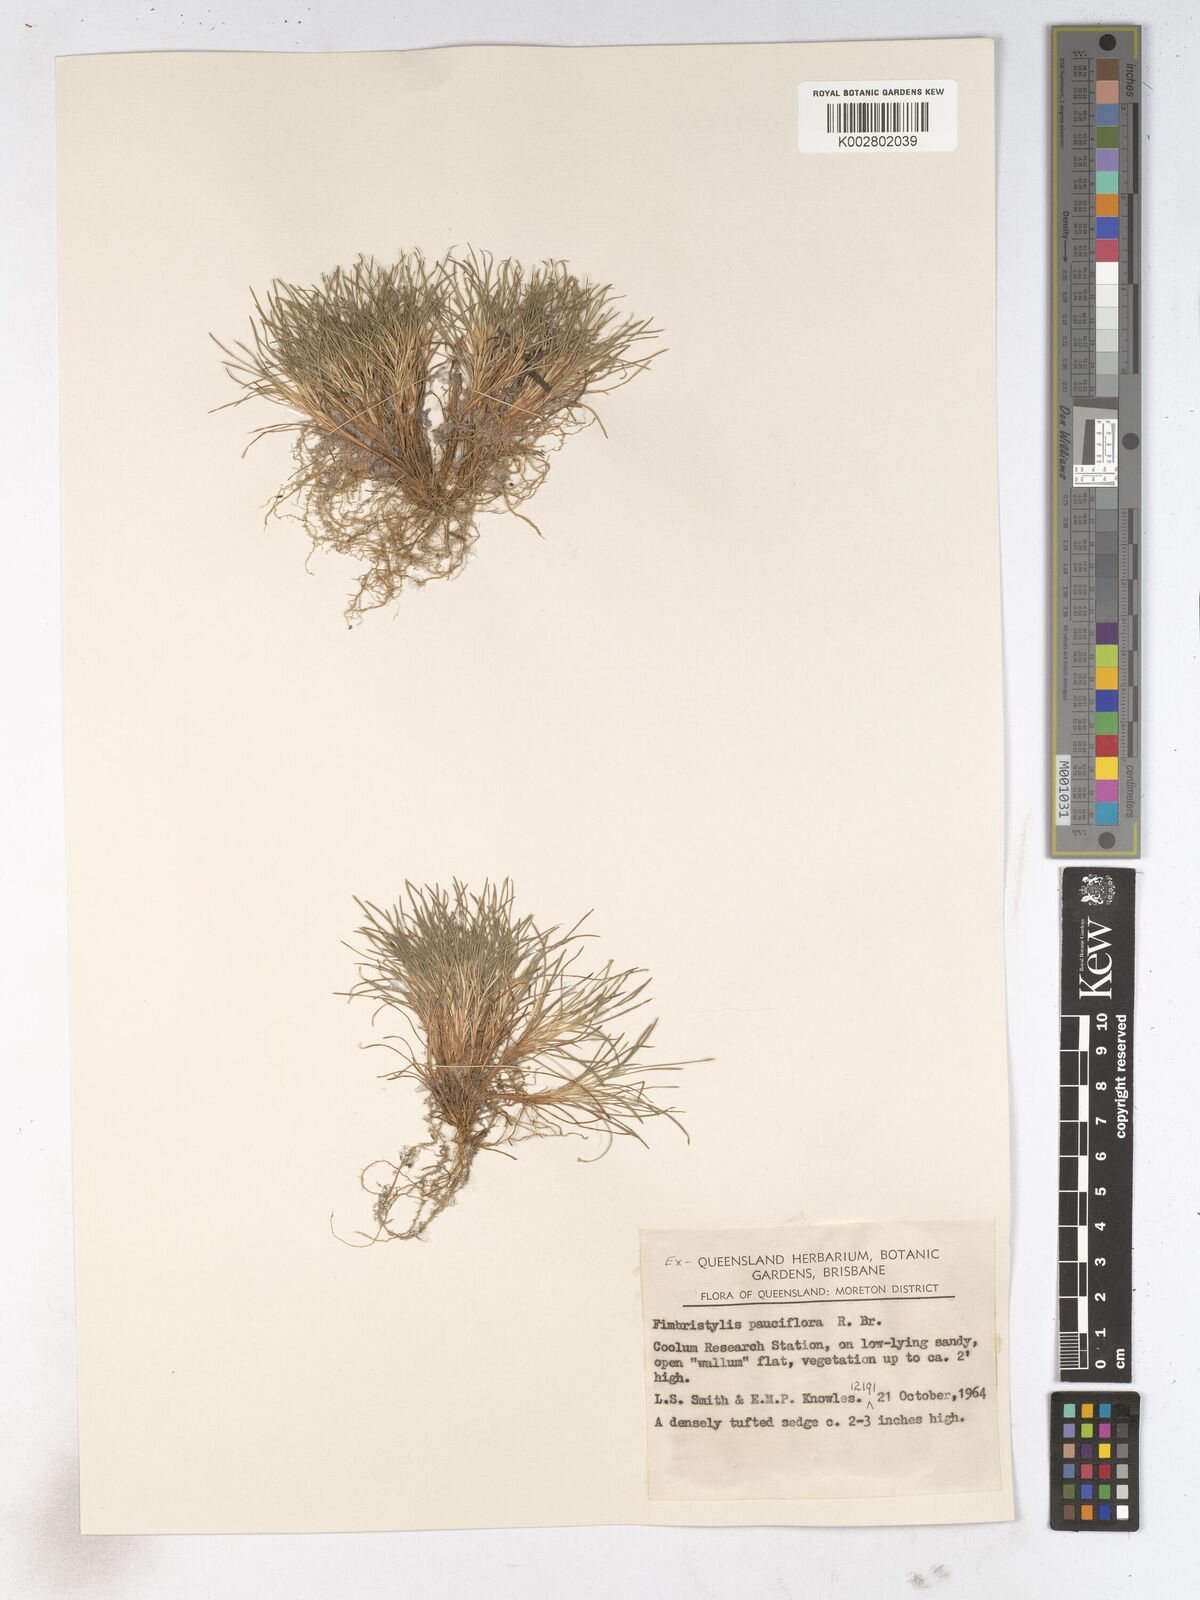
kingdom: Plantae
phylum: Tracheophyta
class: Liliopsida
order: Poales
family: Cyperaceae
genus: Fimbristylis
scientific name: Fimbristylis pauciflora
